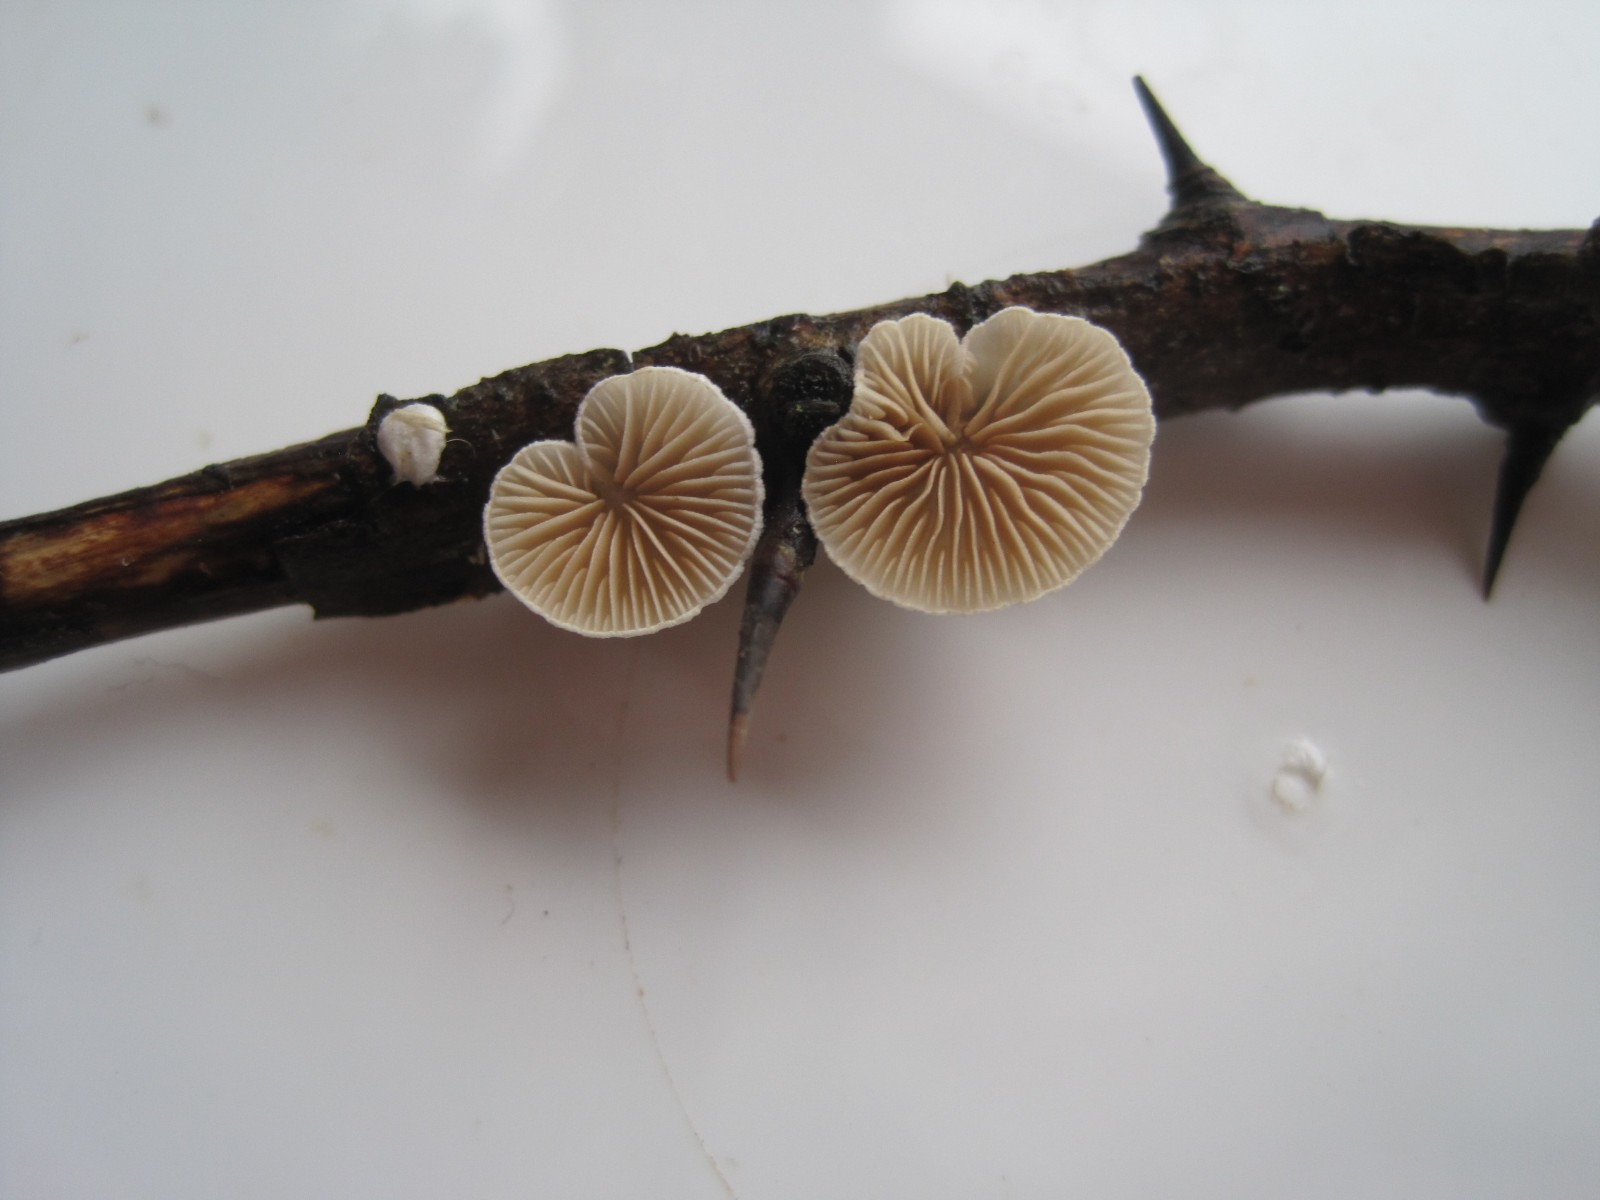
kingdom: Fungi
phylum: Basidiomycota
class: Agaricomycetes
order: Agaricales
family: Crepidotaceae
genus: Crepidotus
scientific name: Crepidotus cesatii
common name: almindelig muslingesvamp
